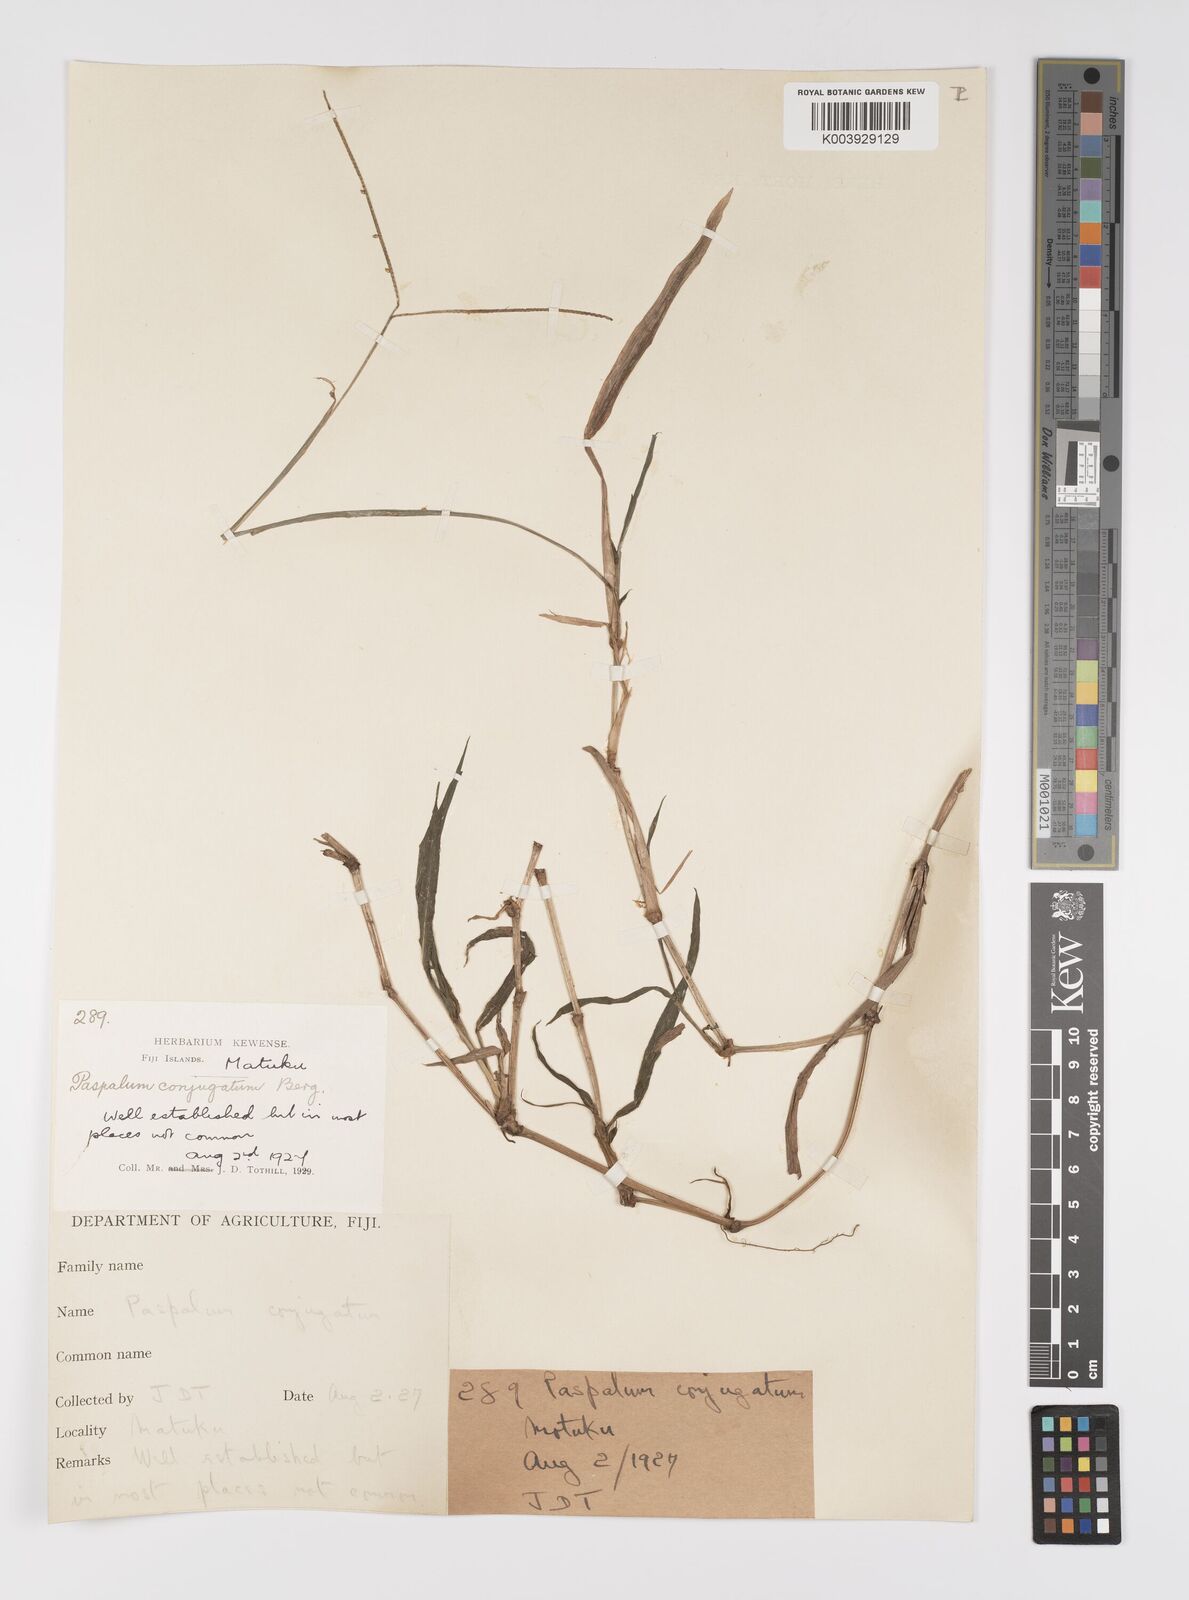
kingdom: Plantae
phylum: Tracheophyta
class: Liliopsida
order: Poales
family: Poaceae
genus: Paspalum
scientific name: Paspalum conjugatum
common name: Hilograss
